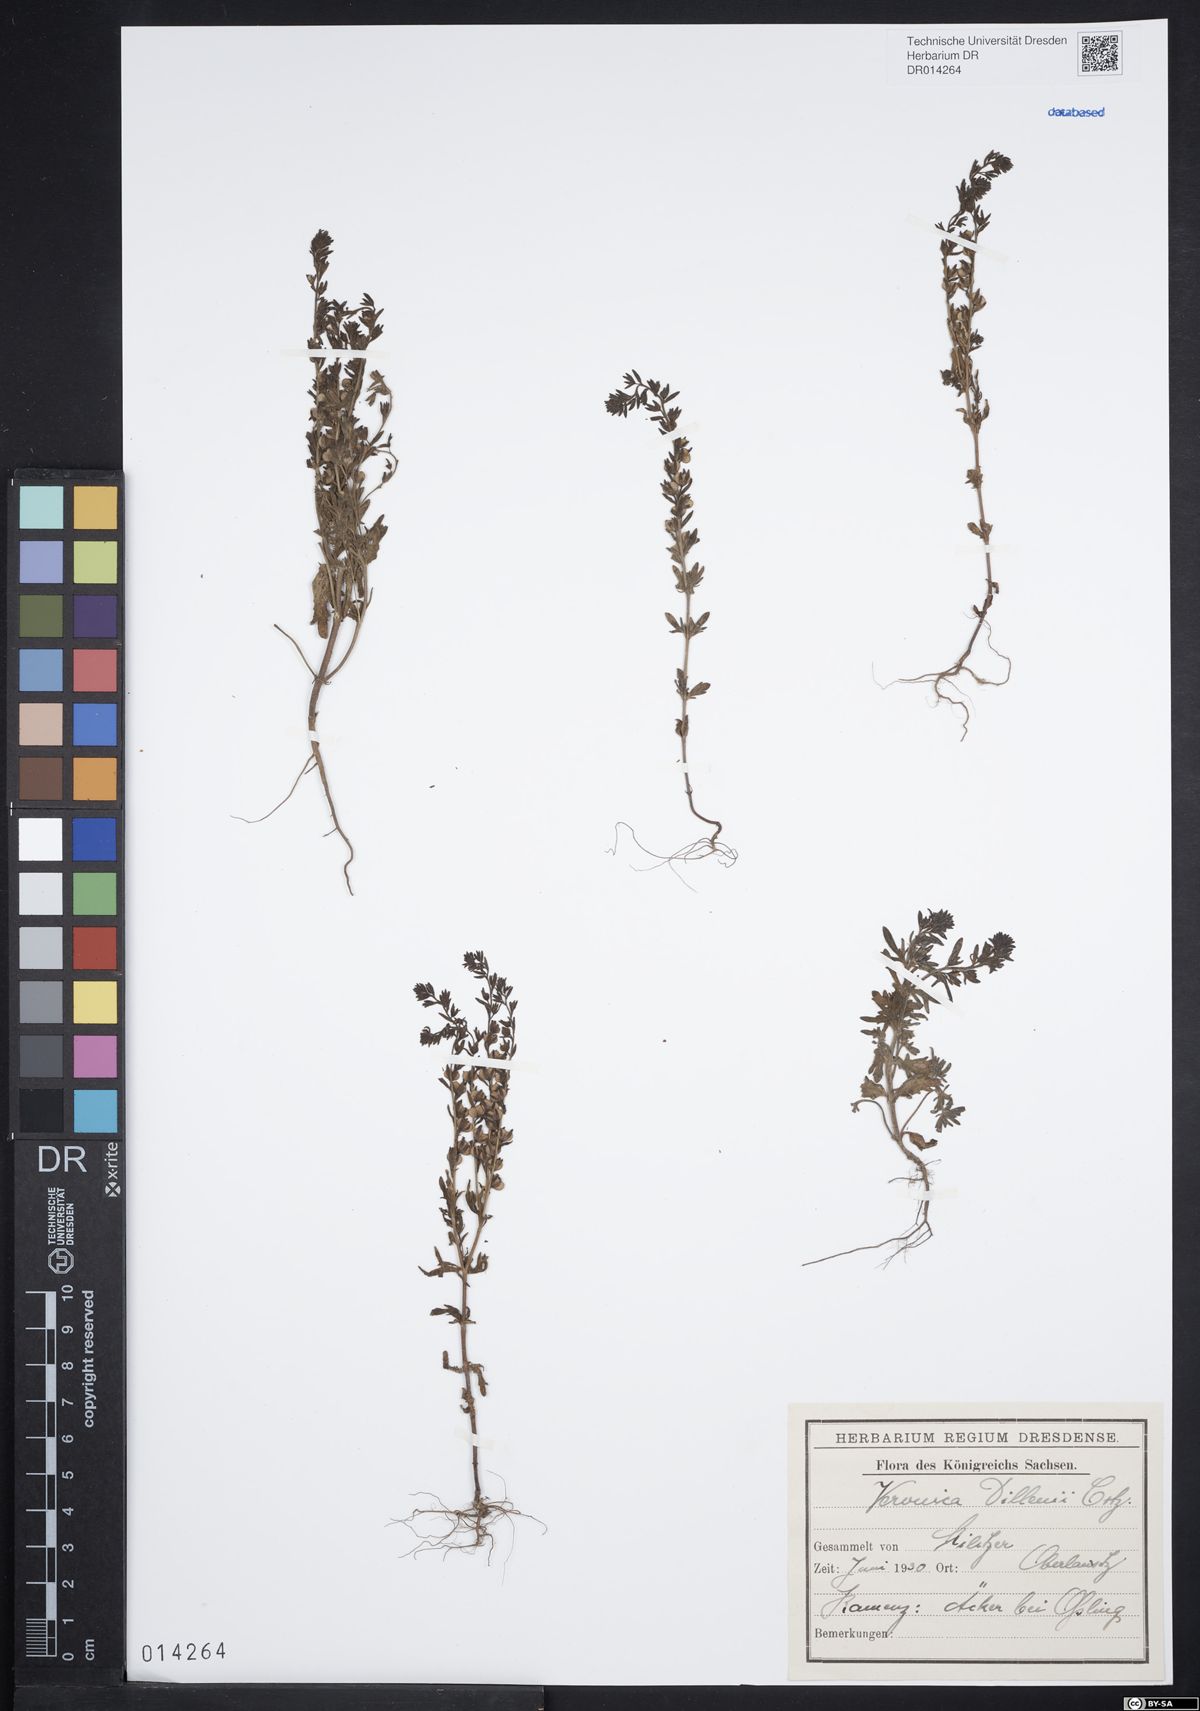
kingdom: Plantae
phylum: Tracheophyta
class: Magnoliopsida
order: Lamiales
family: Plantaginaceae
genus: Veronica
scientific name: Veronica dillenii
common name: Dillenius' speedwell
